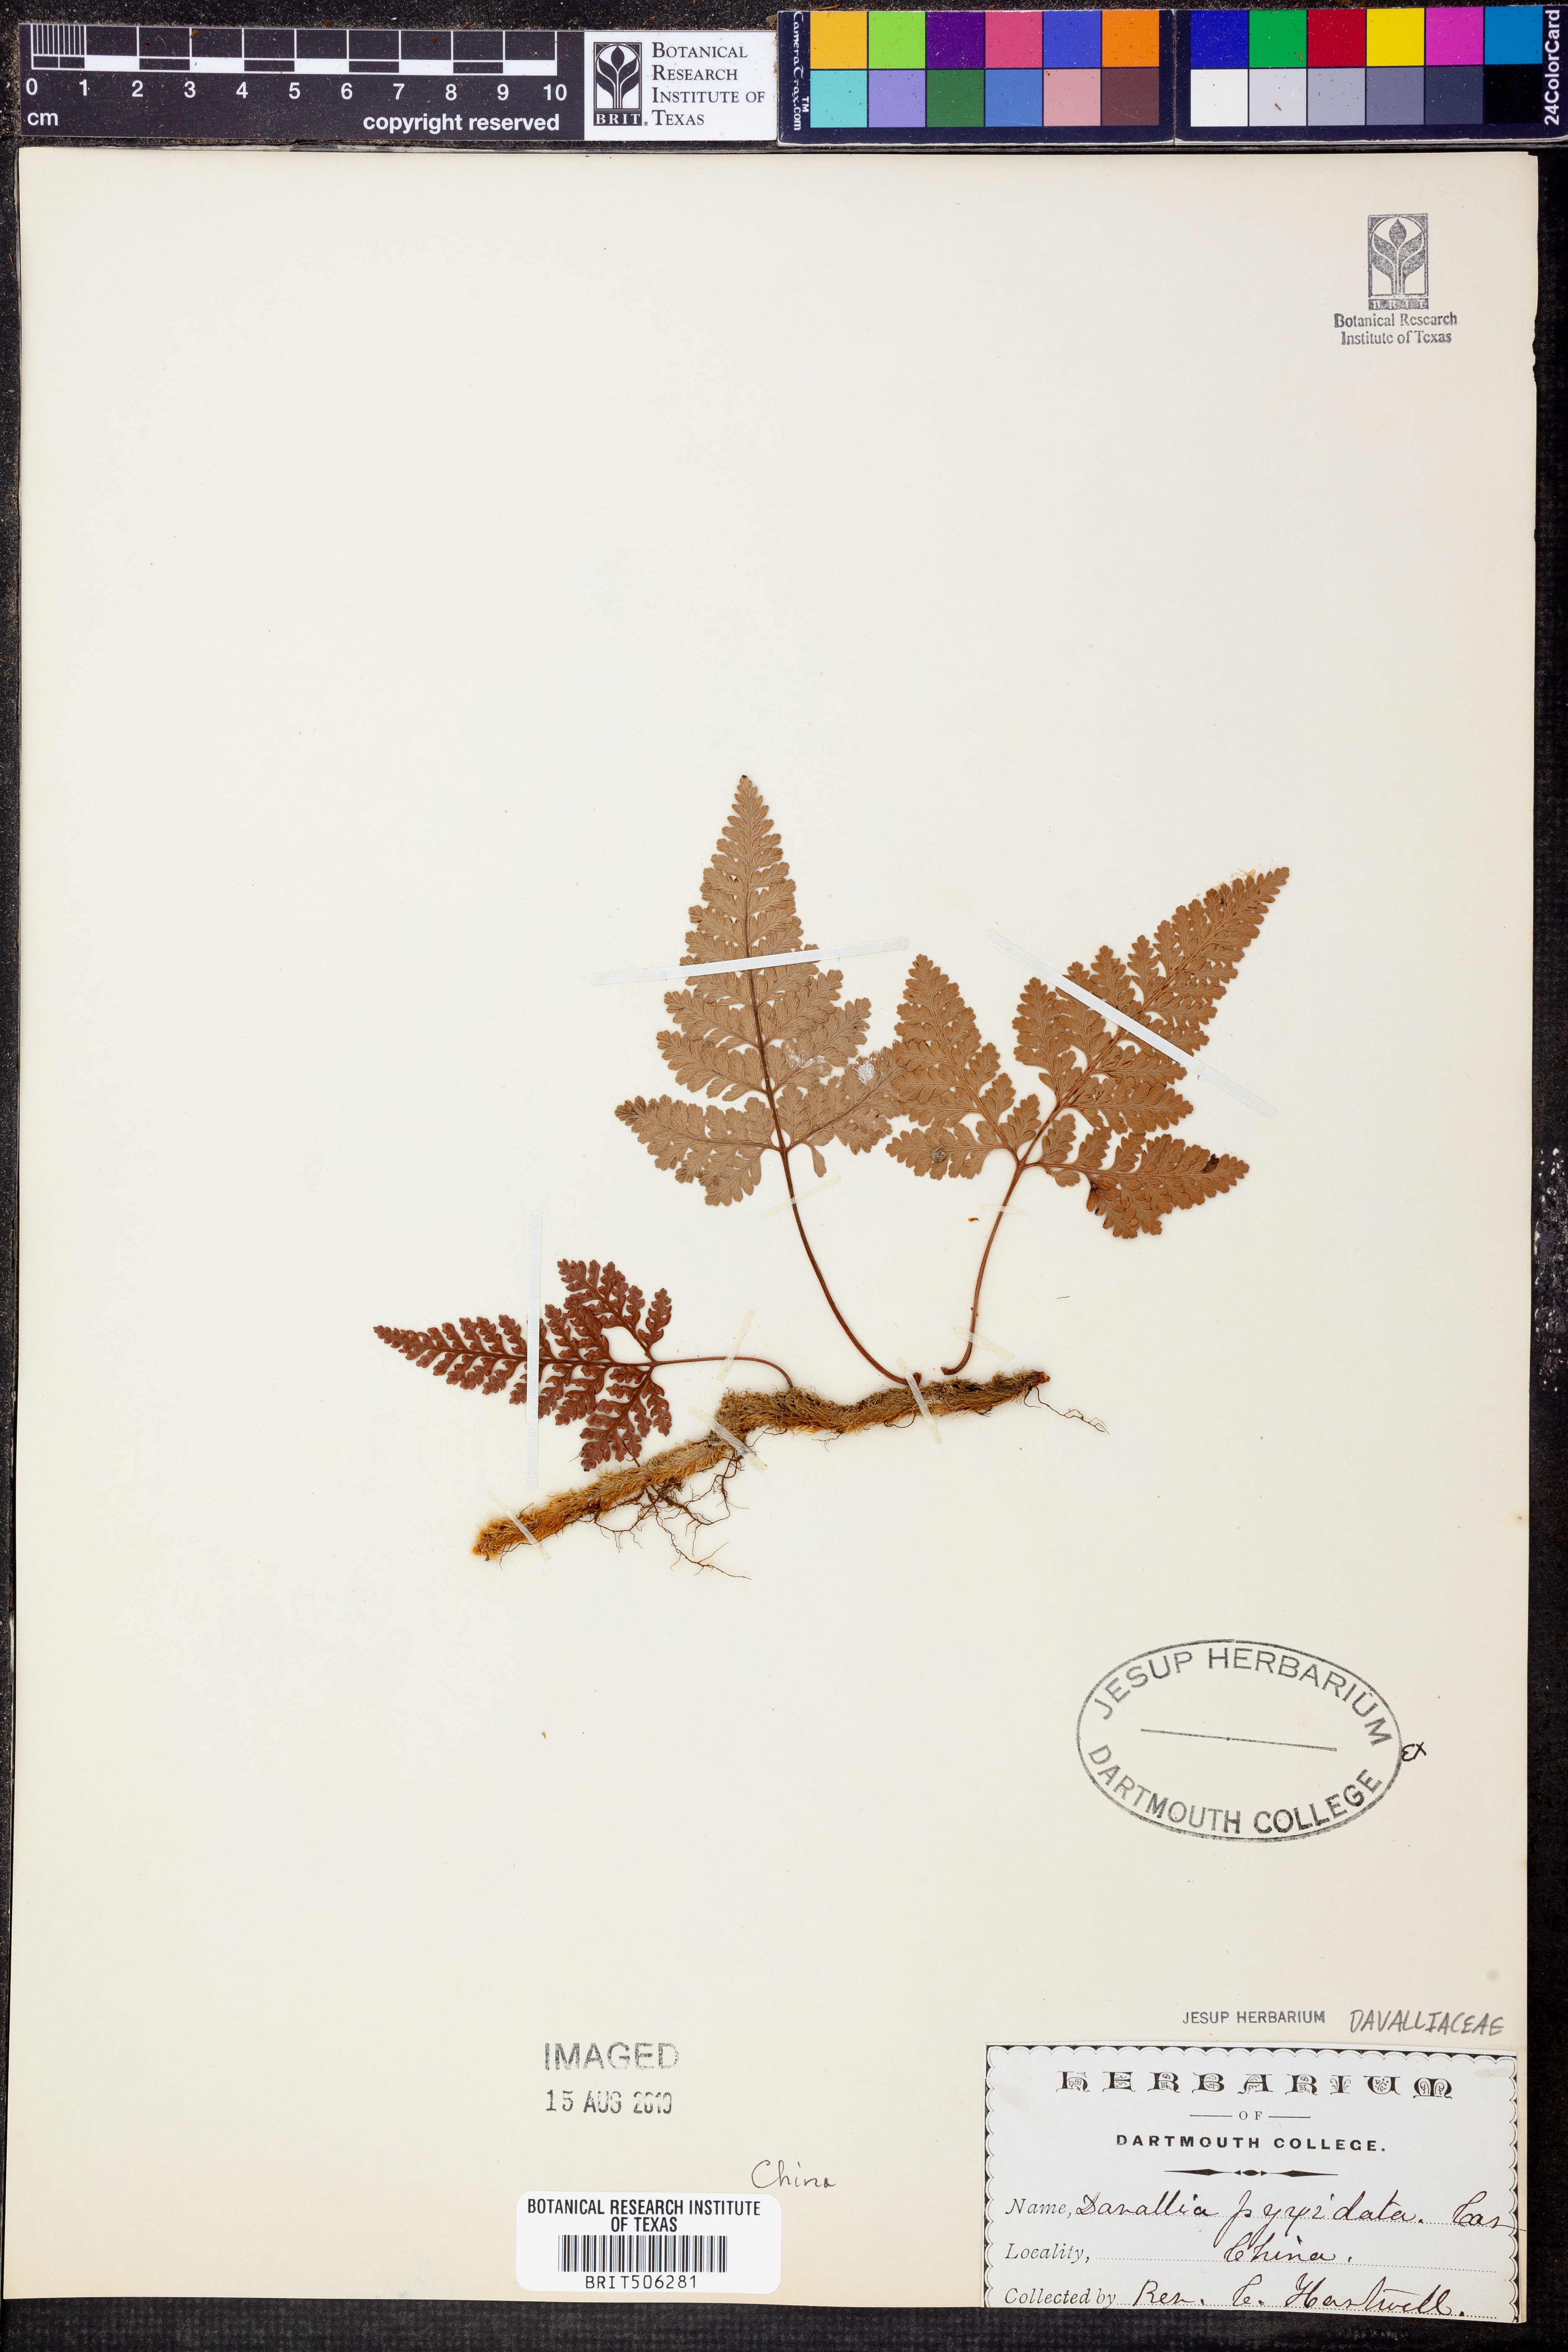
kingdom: Plantae
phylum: Tracheophyta
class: Polypodiopsida
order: Polypodiales
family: Davalliaceae
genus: Davallia
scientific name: Davallia pyxidata
